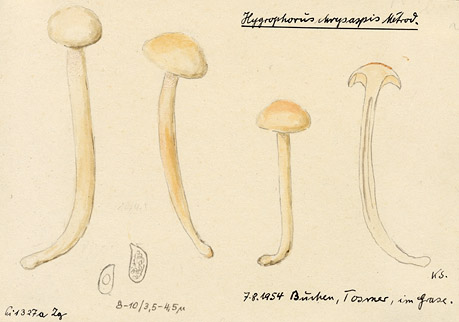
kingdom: Fungi
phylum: Basidiomycota
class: Agaricomycetes
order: Agaricales
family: Hygrophoraceae
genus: Hygrophorus
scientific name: Hygrophorus discoxanthus
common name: Yellowing woodwax
